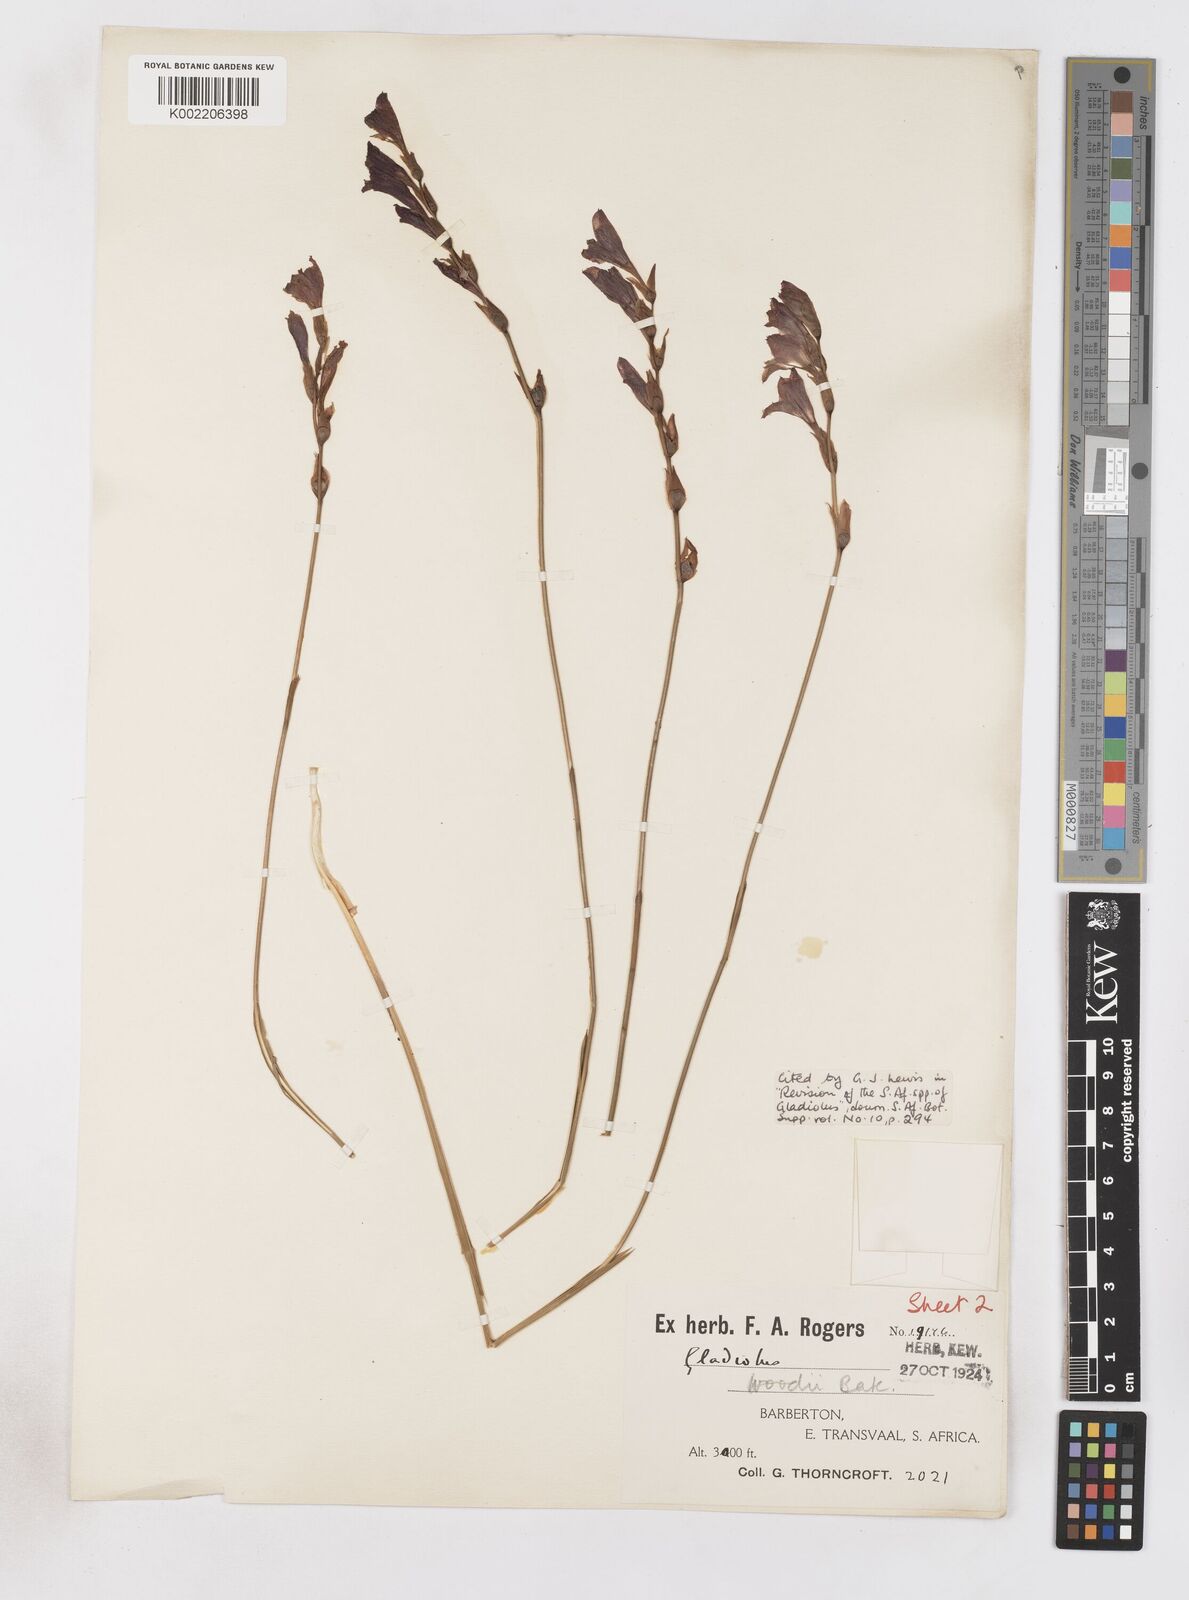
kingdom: Plantae
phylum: Tracheophyta
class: Liliopsida
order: Asparagales
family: Iridaceae
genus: Gladiolus
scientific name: Gladiolus woodii
